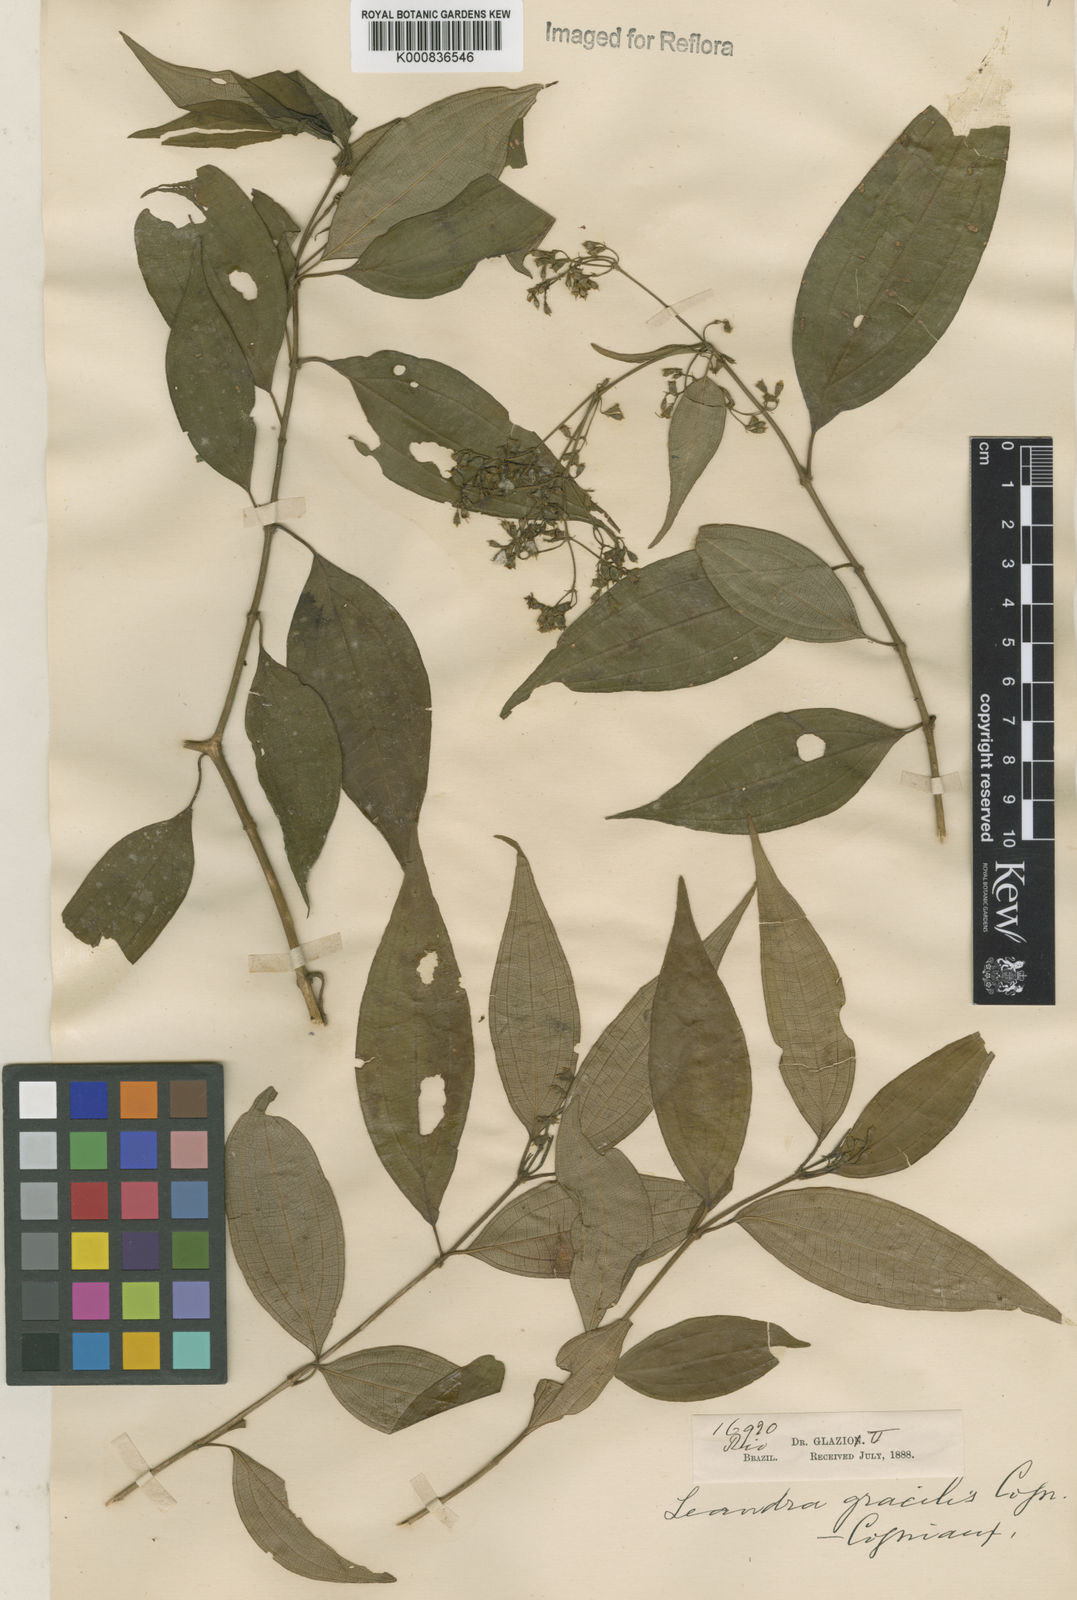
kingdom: Plantae
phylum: Tracheophyta
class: Magnoliopsida
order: Myrtales
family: Melastomataceae
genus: Miconia
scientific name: Miconia leagracilis
